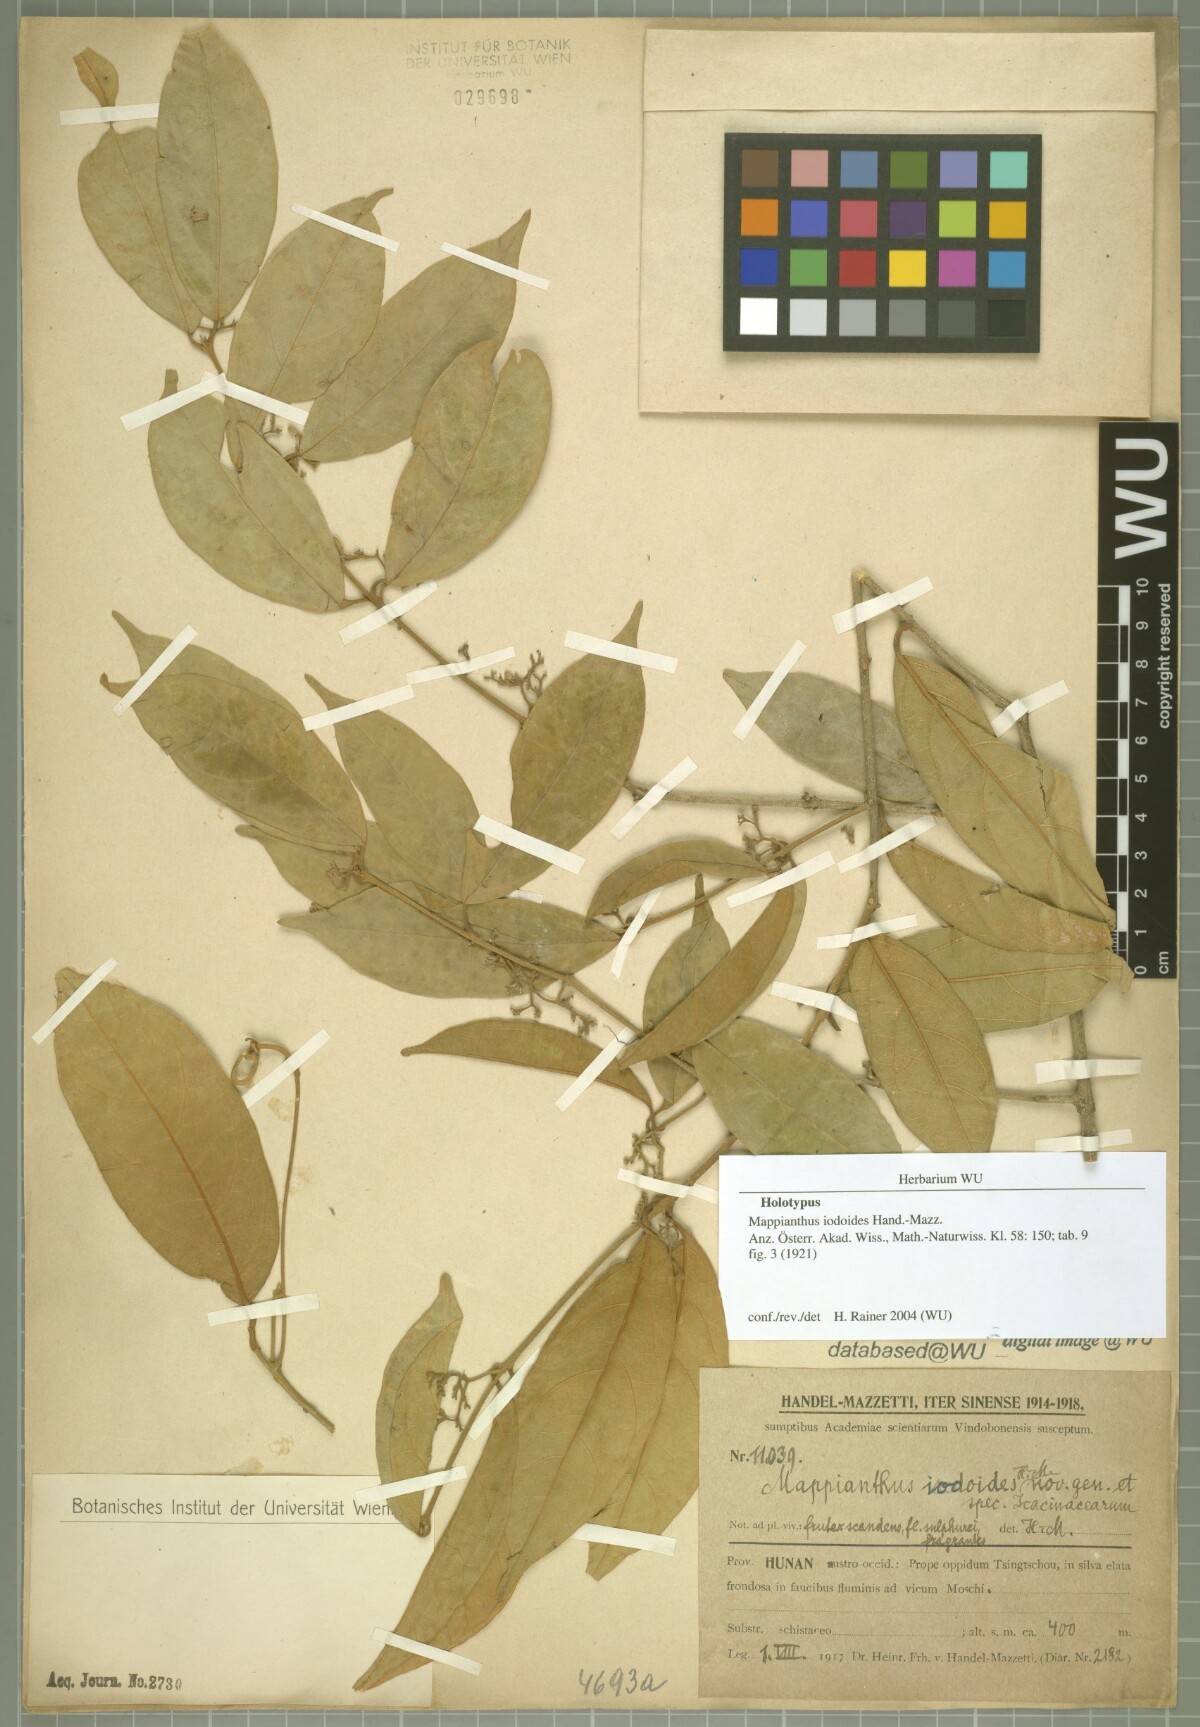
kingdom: Plantae
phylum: Tracheophyta
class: Magnoliopsida
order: Icacinales
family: Icacinaceae
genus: Mappianthus
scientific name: Mappianthus iodoides
